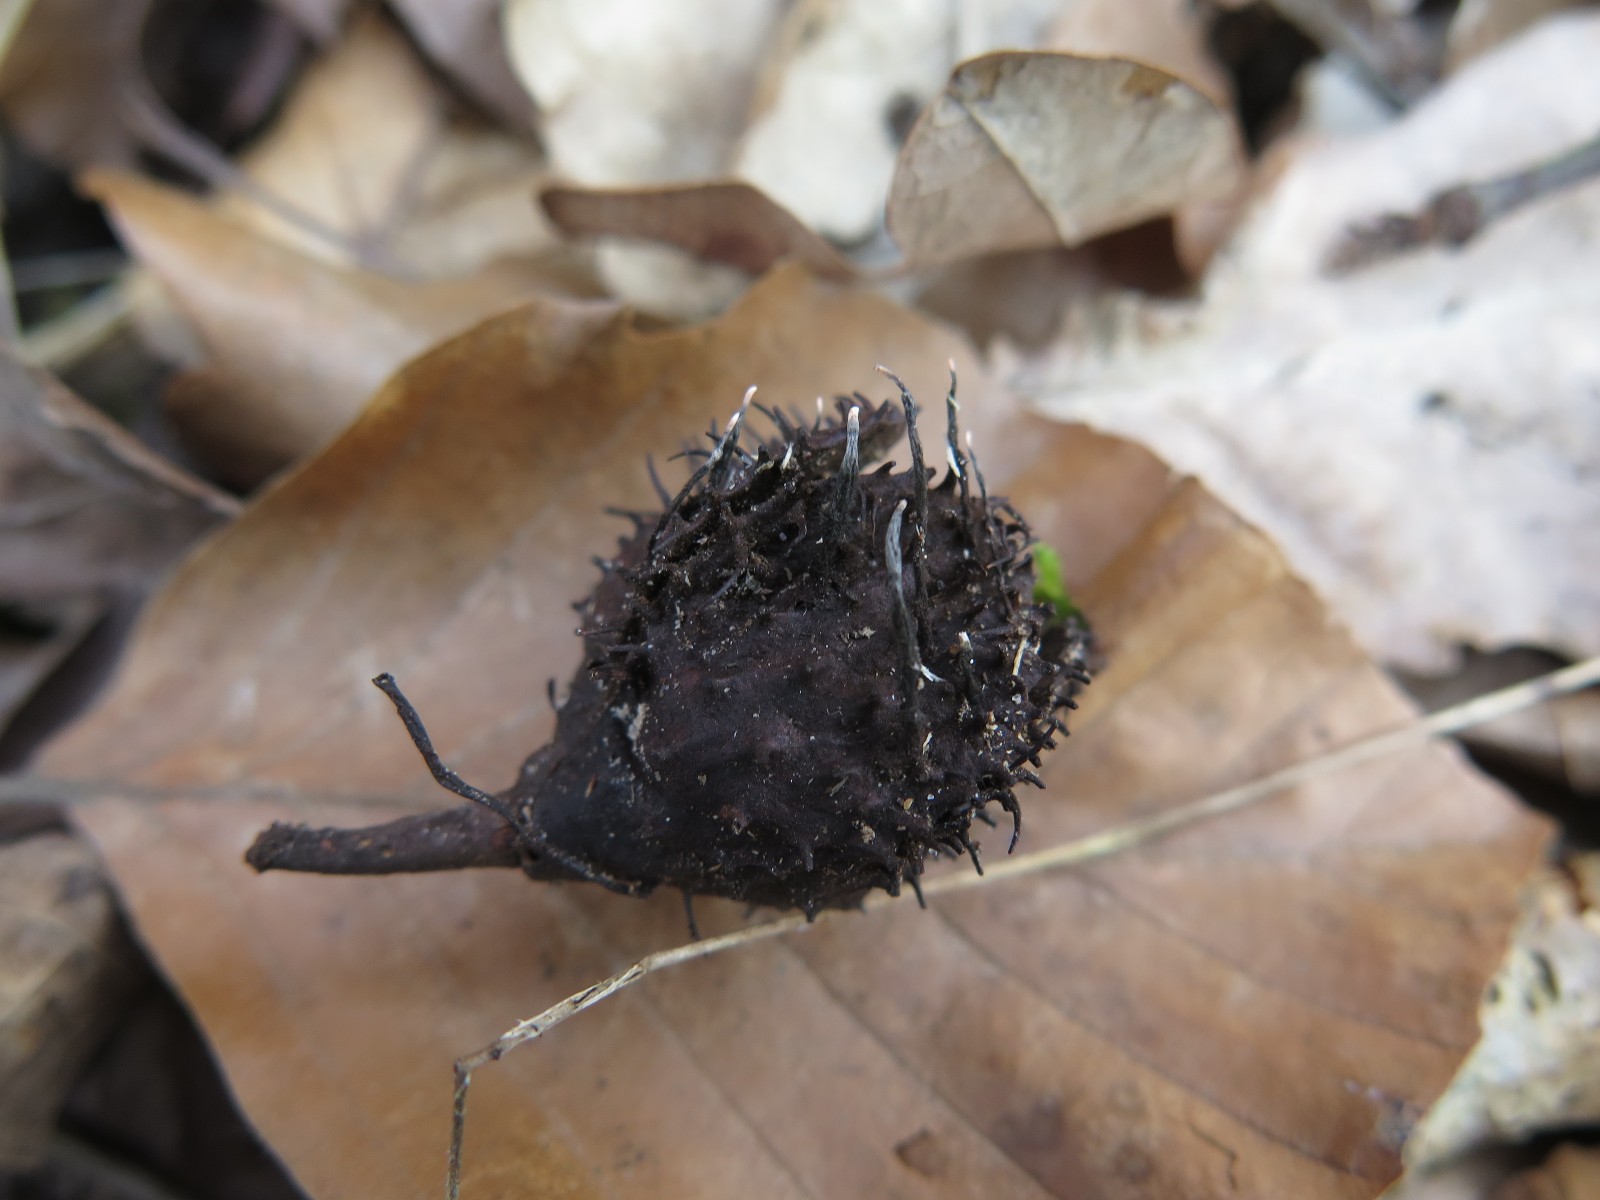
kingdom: Fungi
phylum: Ascomycota
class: Sordariomycetes
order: Xylariales
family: Xylariaceae
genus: Xylaria
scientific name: Xylaria carpophila
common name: bogskål-stødsvamp
